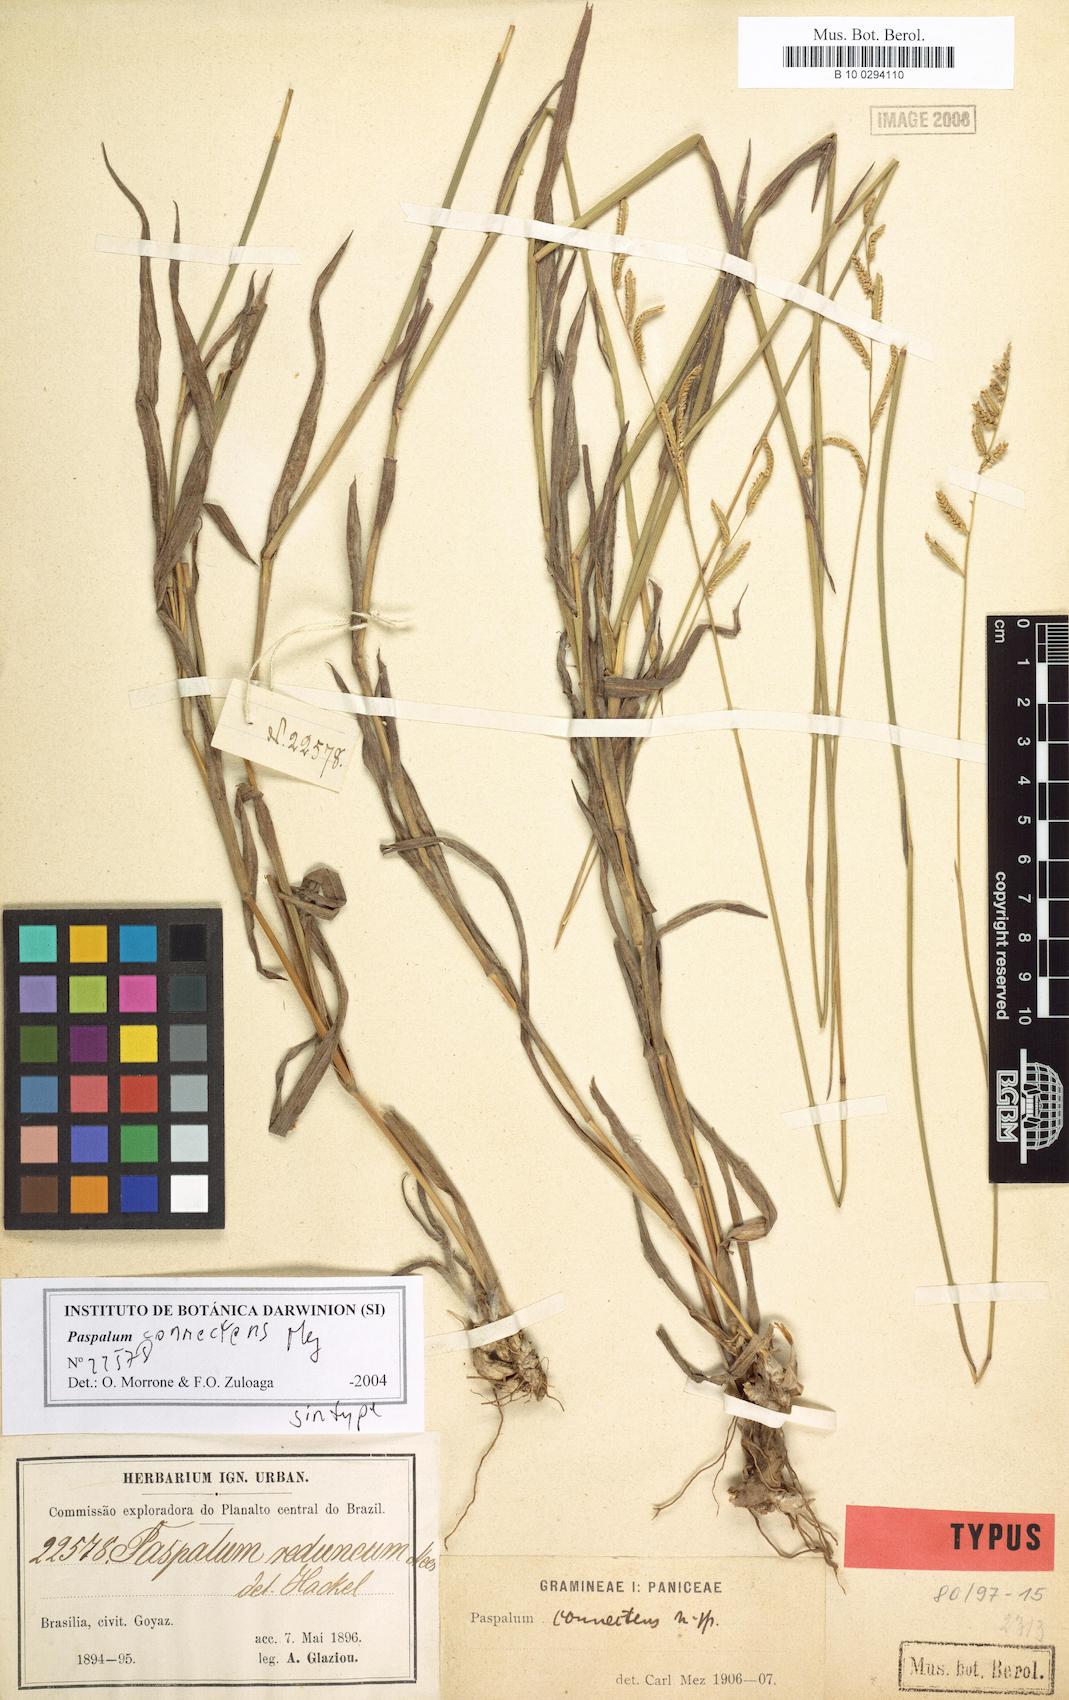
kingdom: Plantae
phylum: Tracheophyta
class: Liliopsida
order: Poales
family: Poaceae
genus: Paspalum
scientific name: Paspalum reduncum
